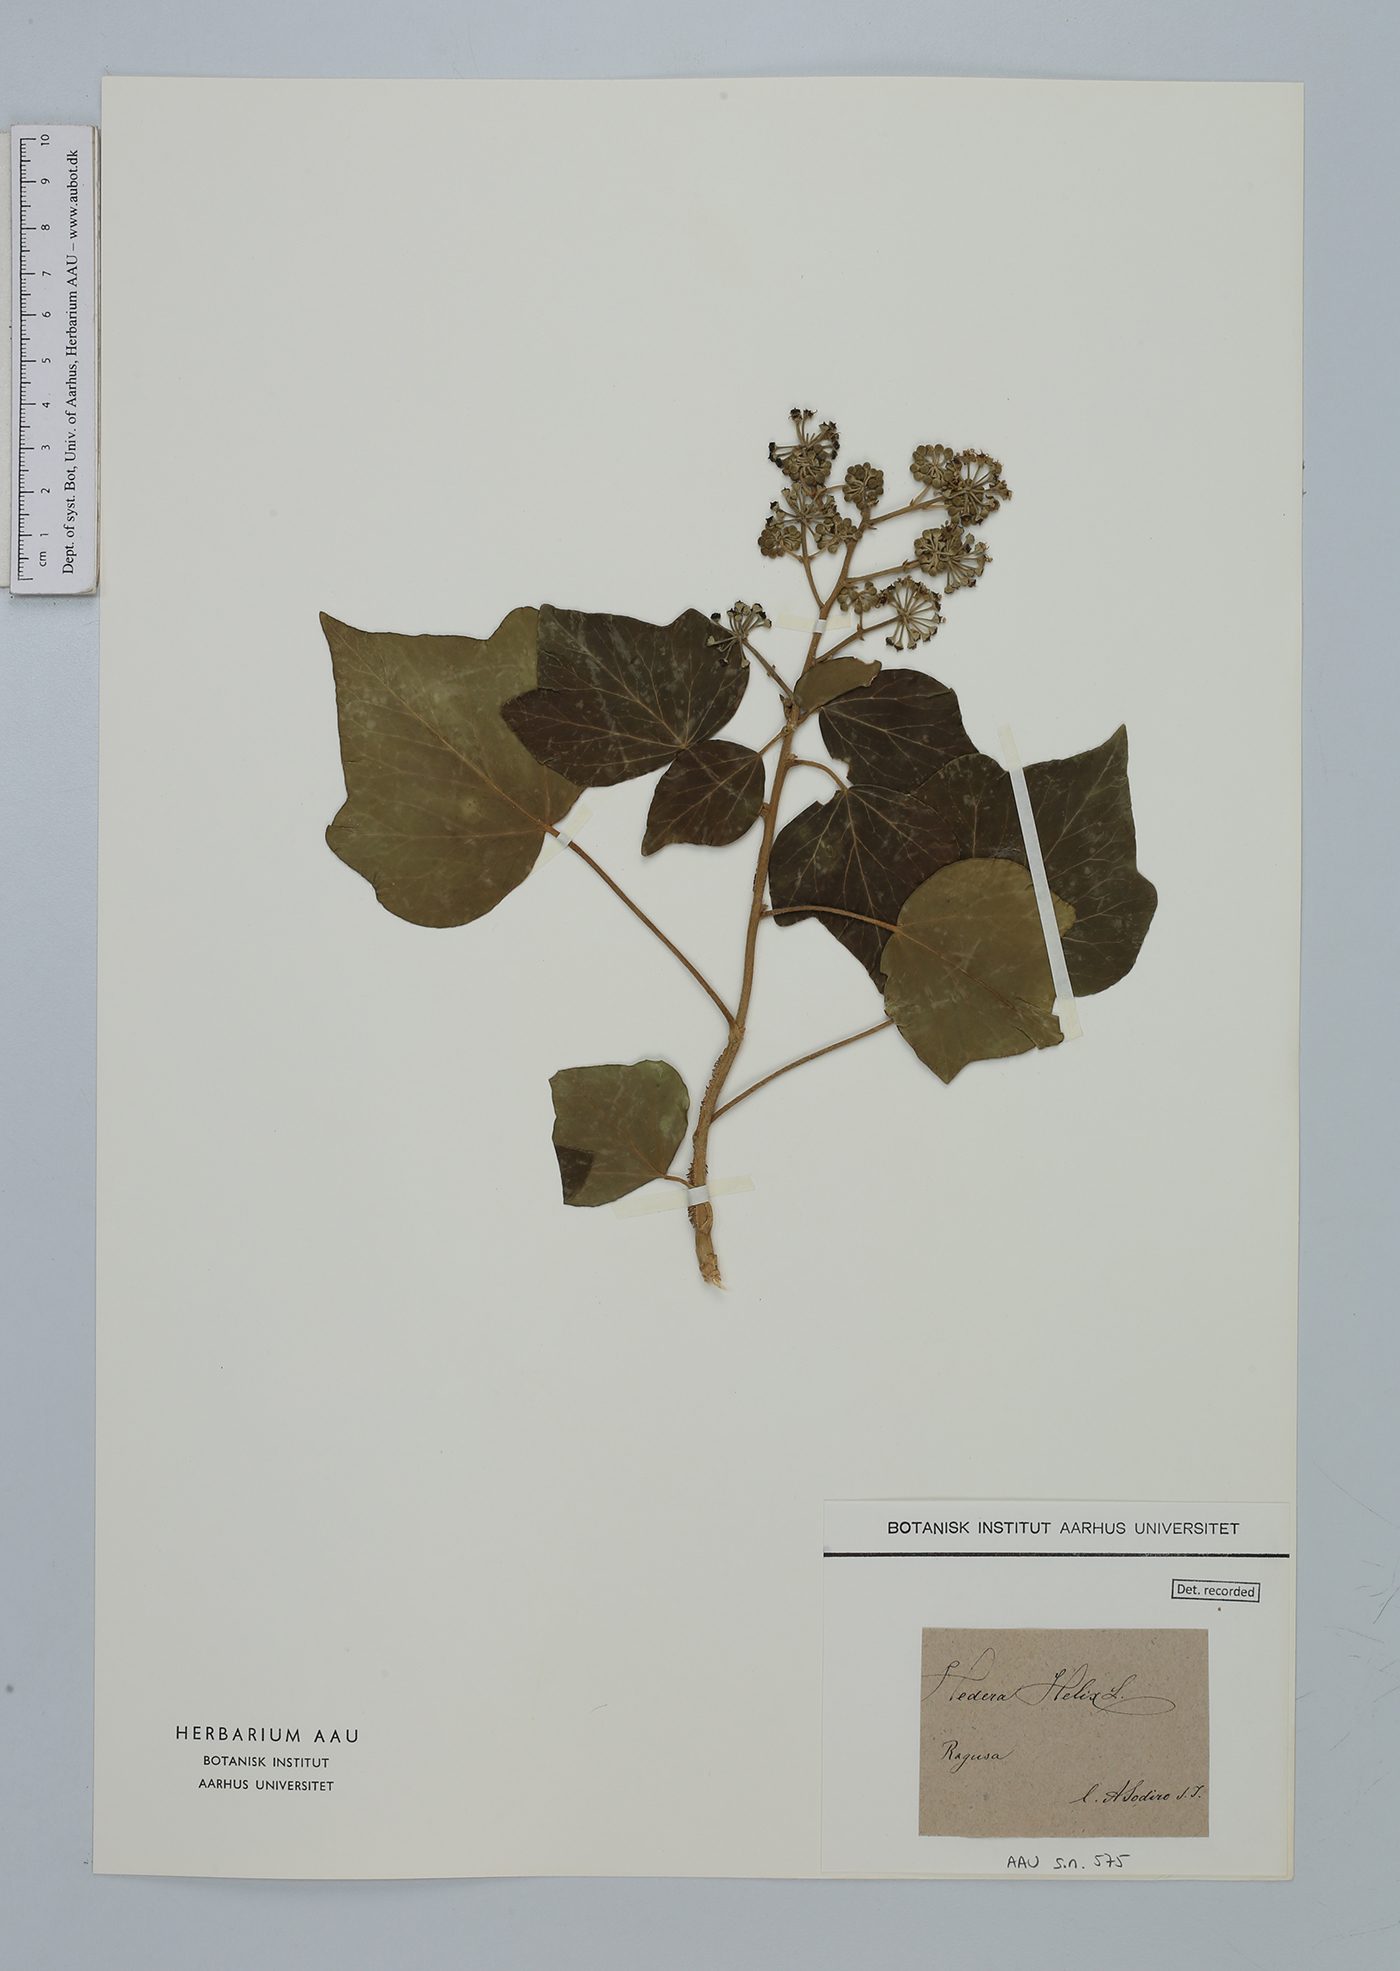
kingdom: Plantae
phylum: Tracheophyta
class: Magnoliopsida
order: Apiales
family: Araliaceae
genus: Hedera
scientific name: Hedera helix
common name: Ivy
